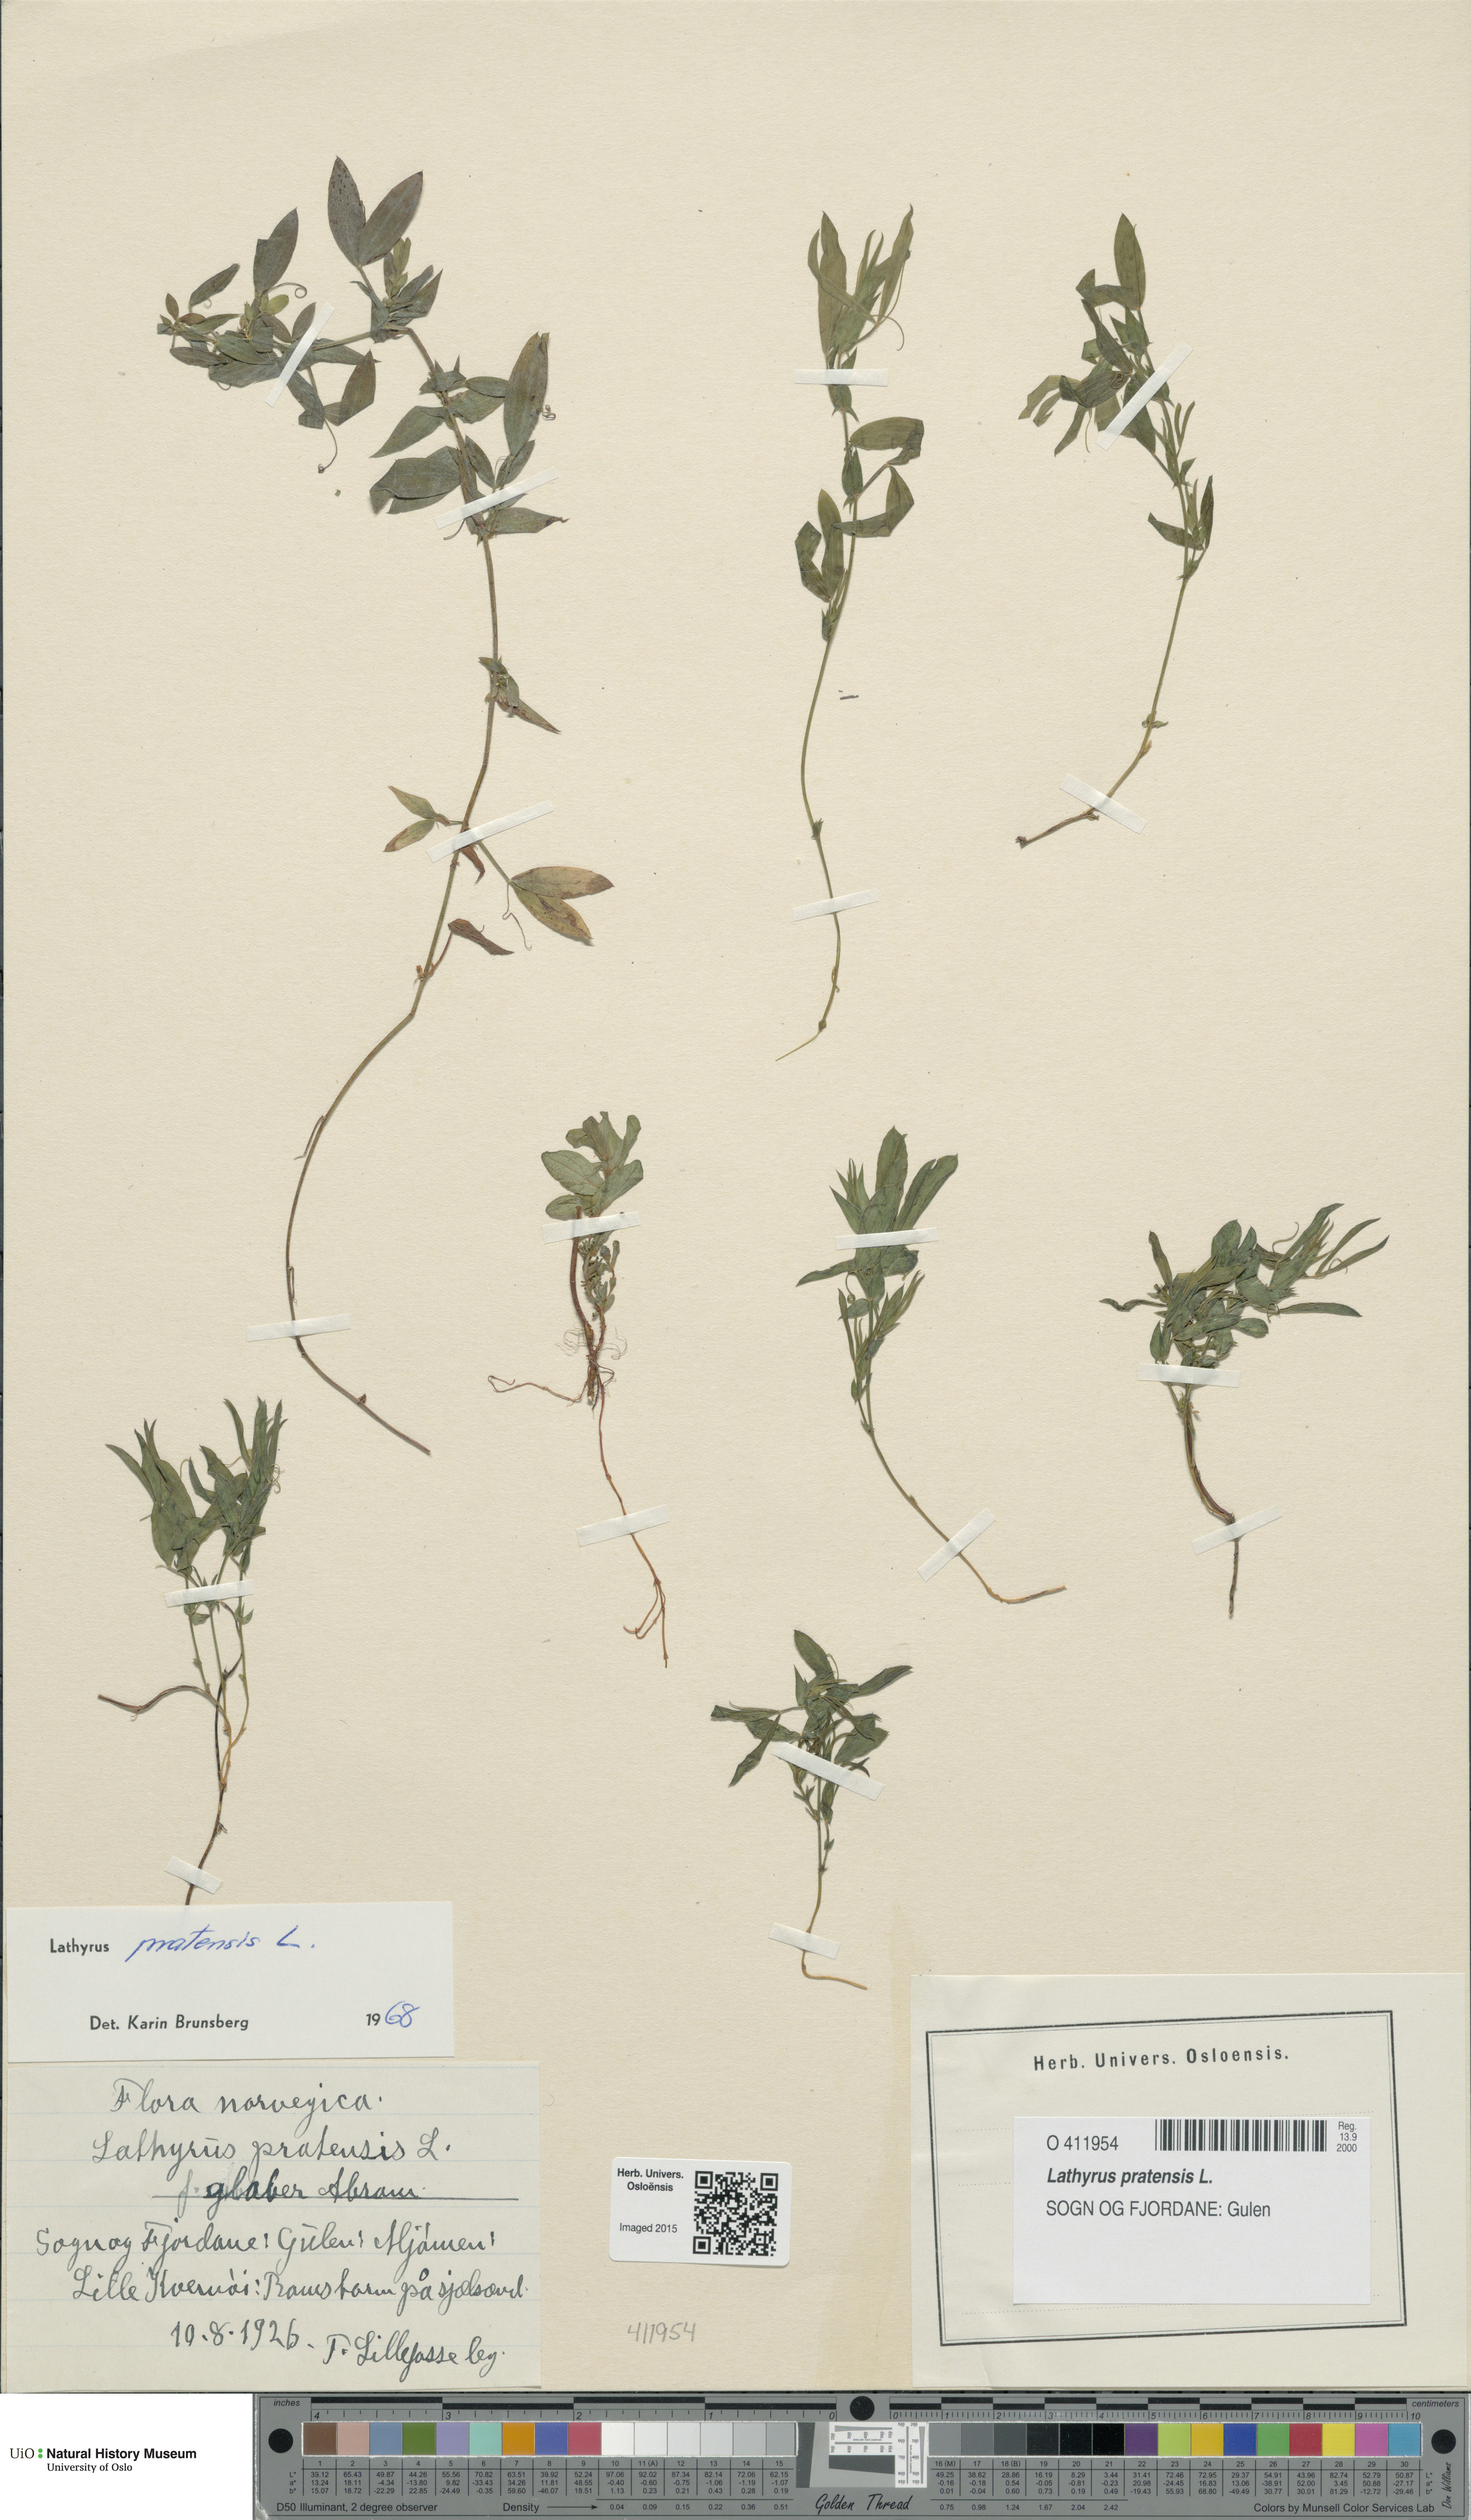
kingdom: Plantae
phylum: Tracheophyta
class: Magnoliopsida
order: Fabales
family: Fabaceae
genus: Lathyrus
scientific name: Lathyrus pratensis
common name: Meadow vetchling
